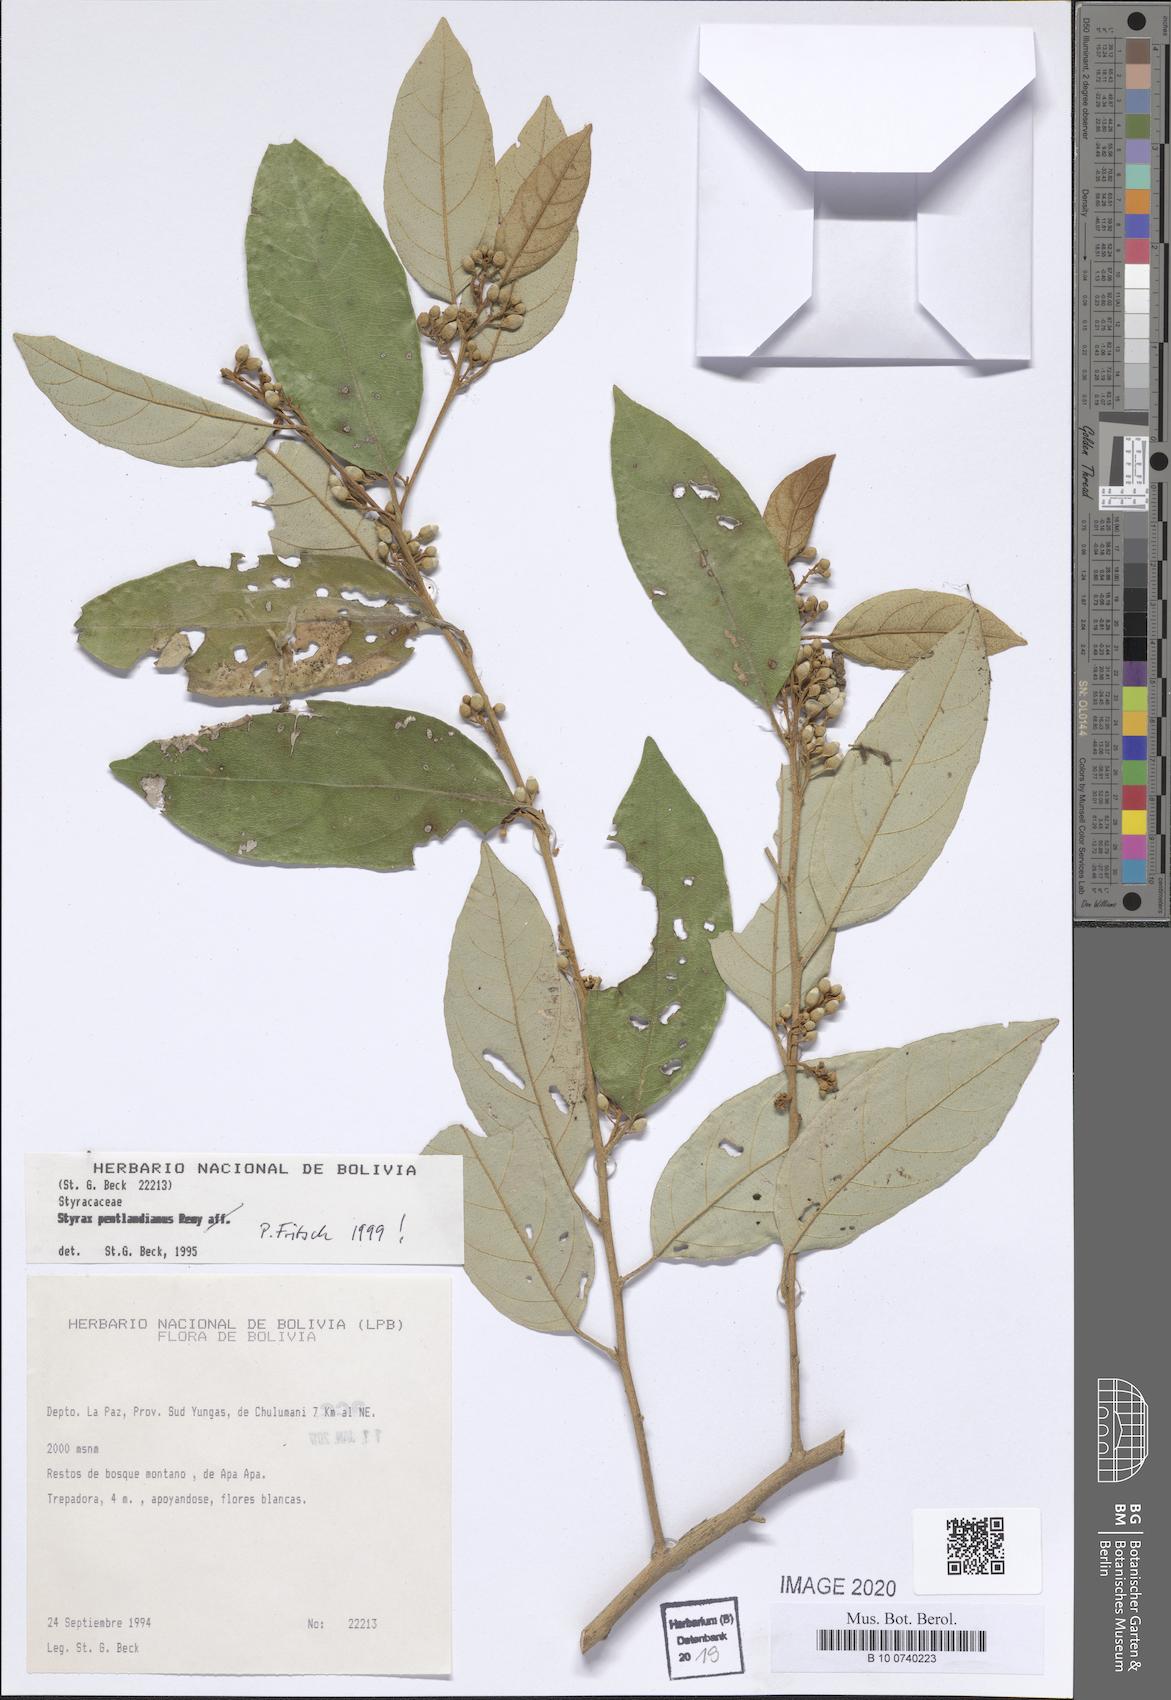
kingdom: Plantae
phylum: Tracheophyta
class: Magnoliopsida
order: Ericales
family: Styracaceae
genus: Styrax
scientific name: Styrax pentlandianus
